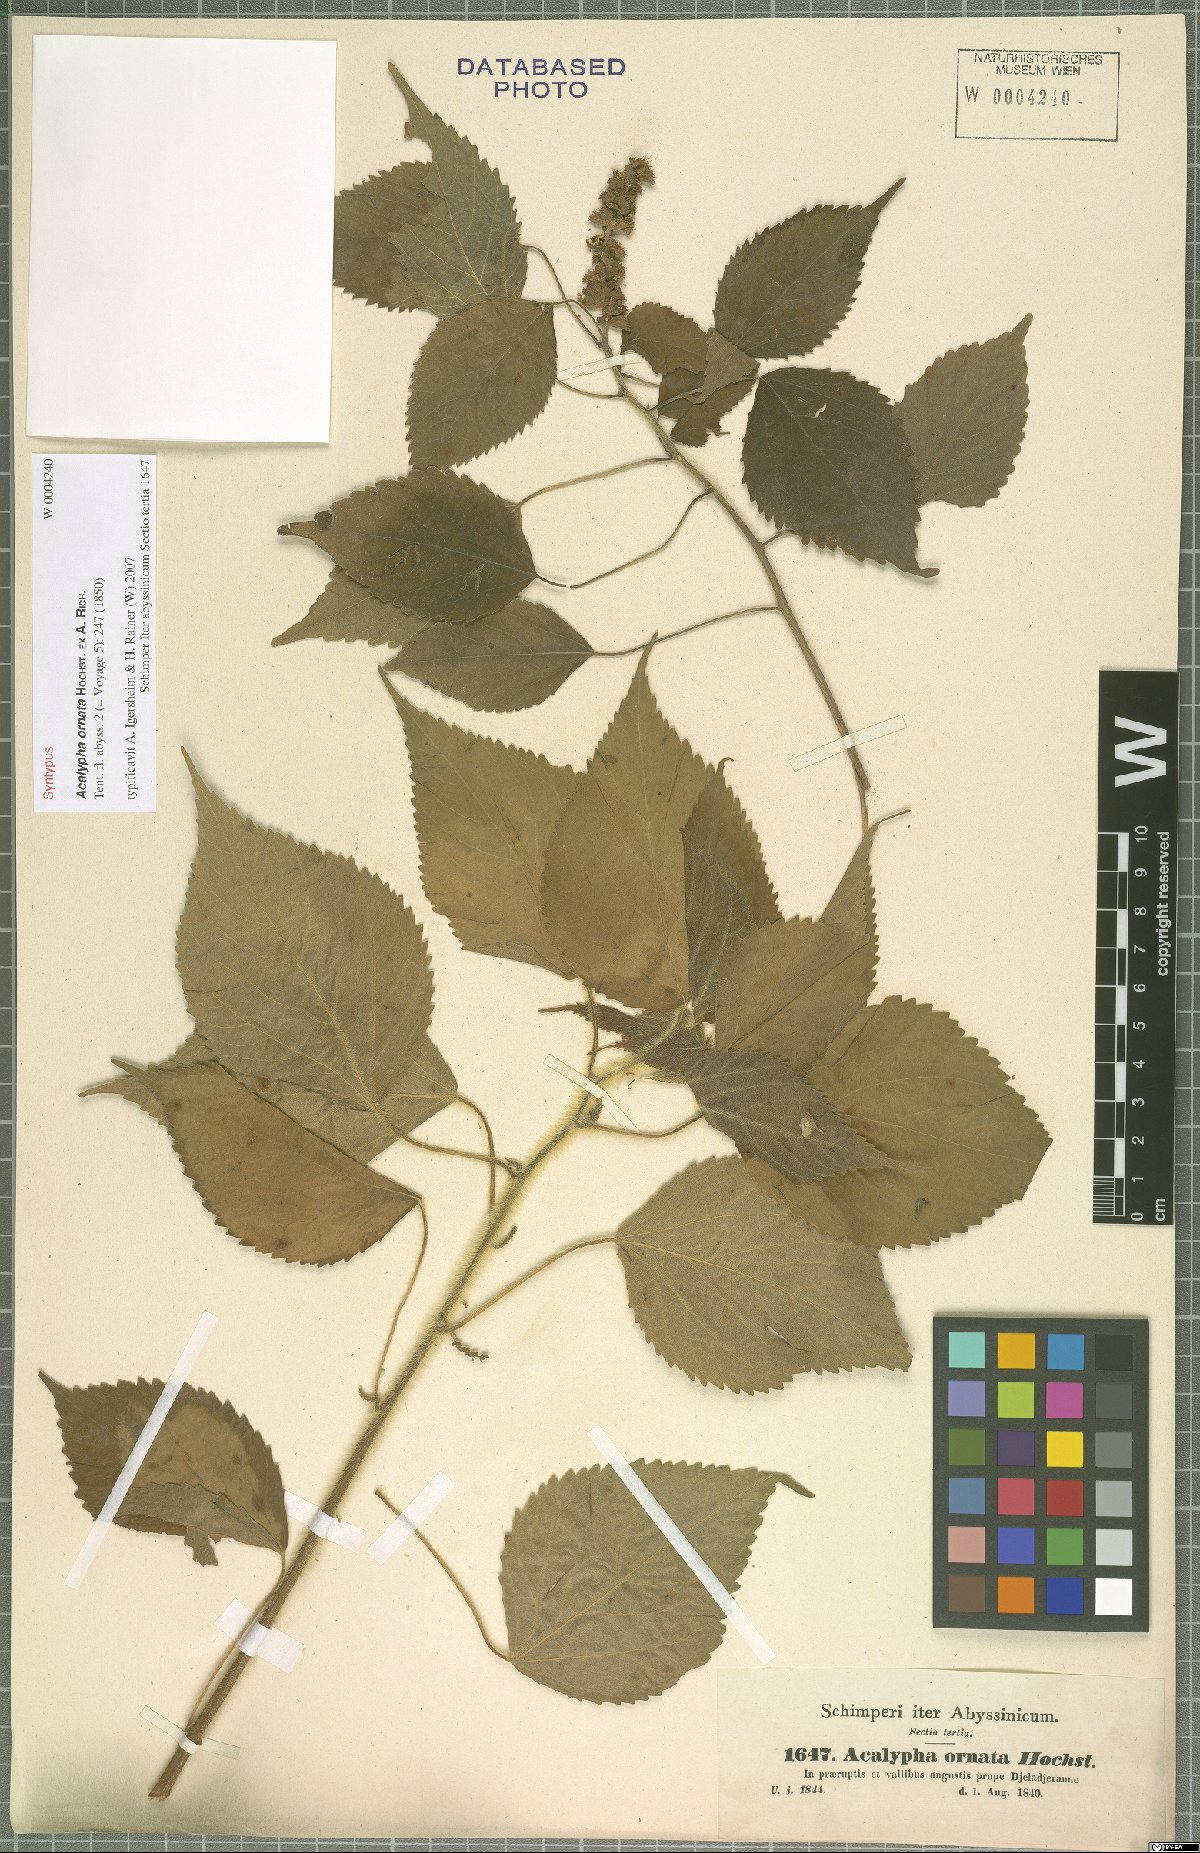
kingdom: Plantae
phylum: Tracheophyta
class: Magnoliopsida
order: Malpighiales
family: Euphorbiaceae
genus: Acalypha
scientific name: Acalypha ornata
